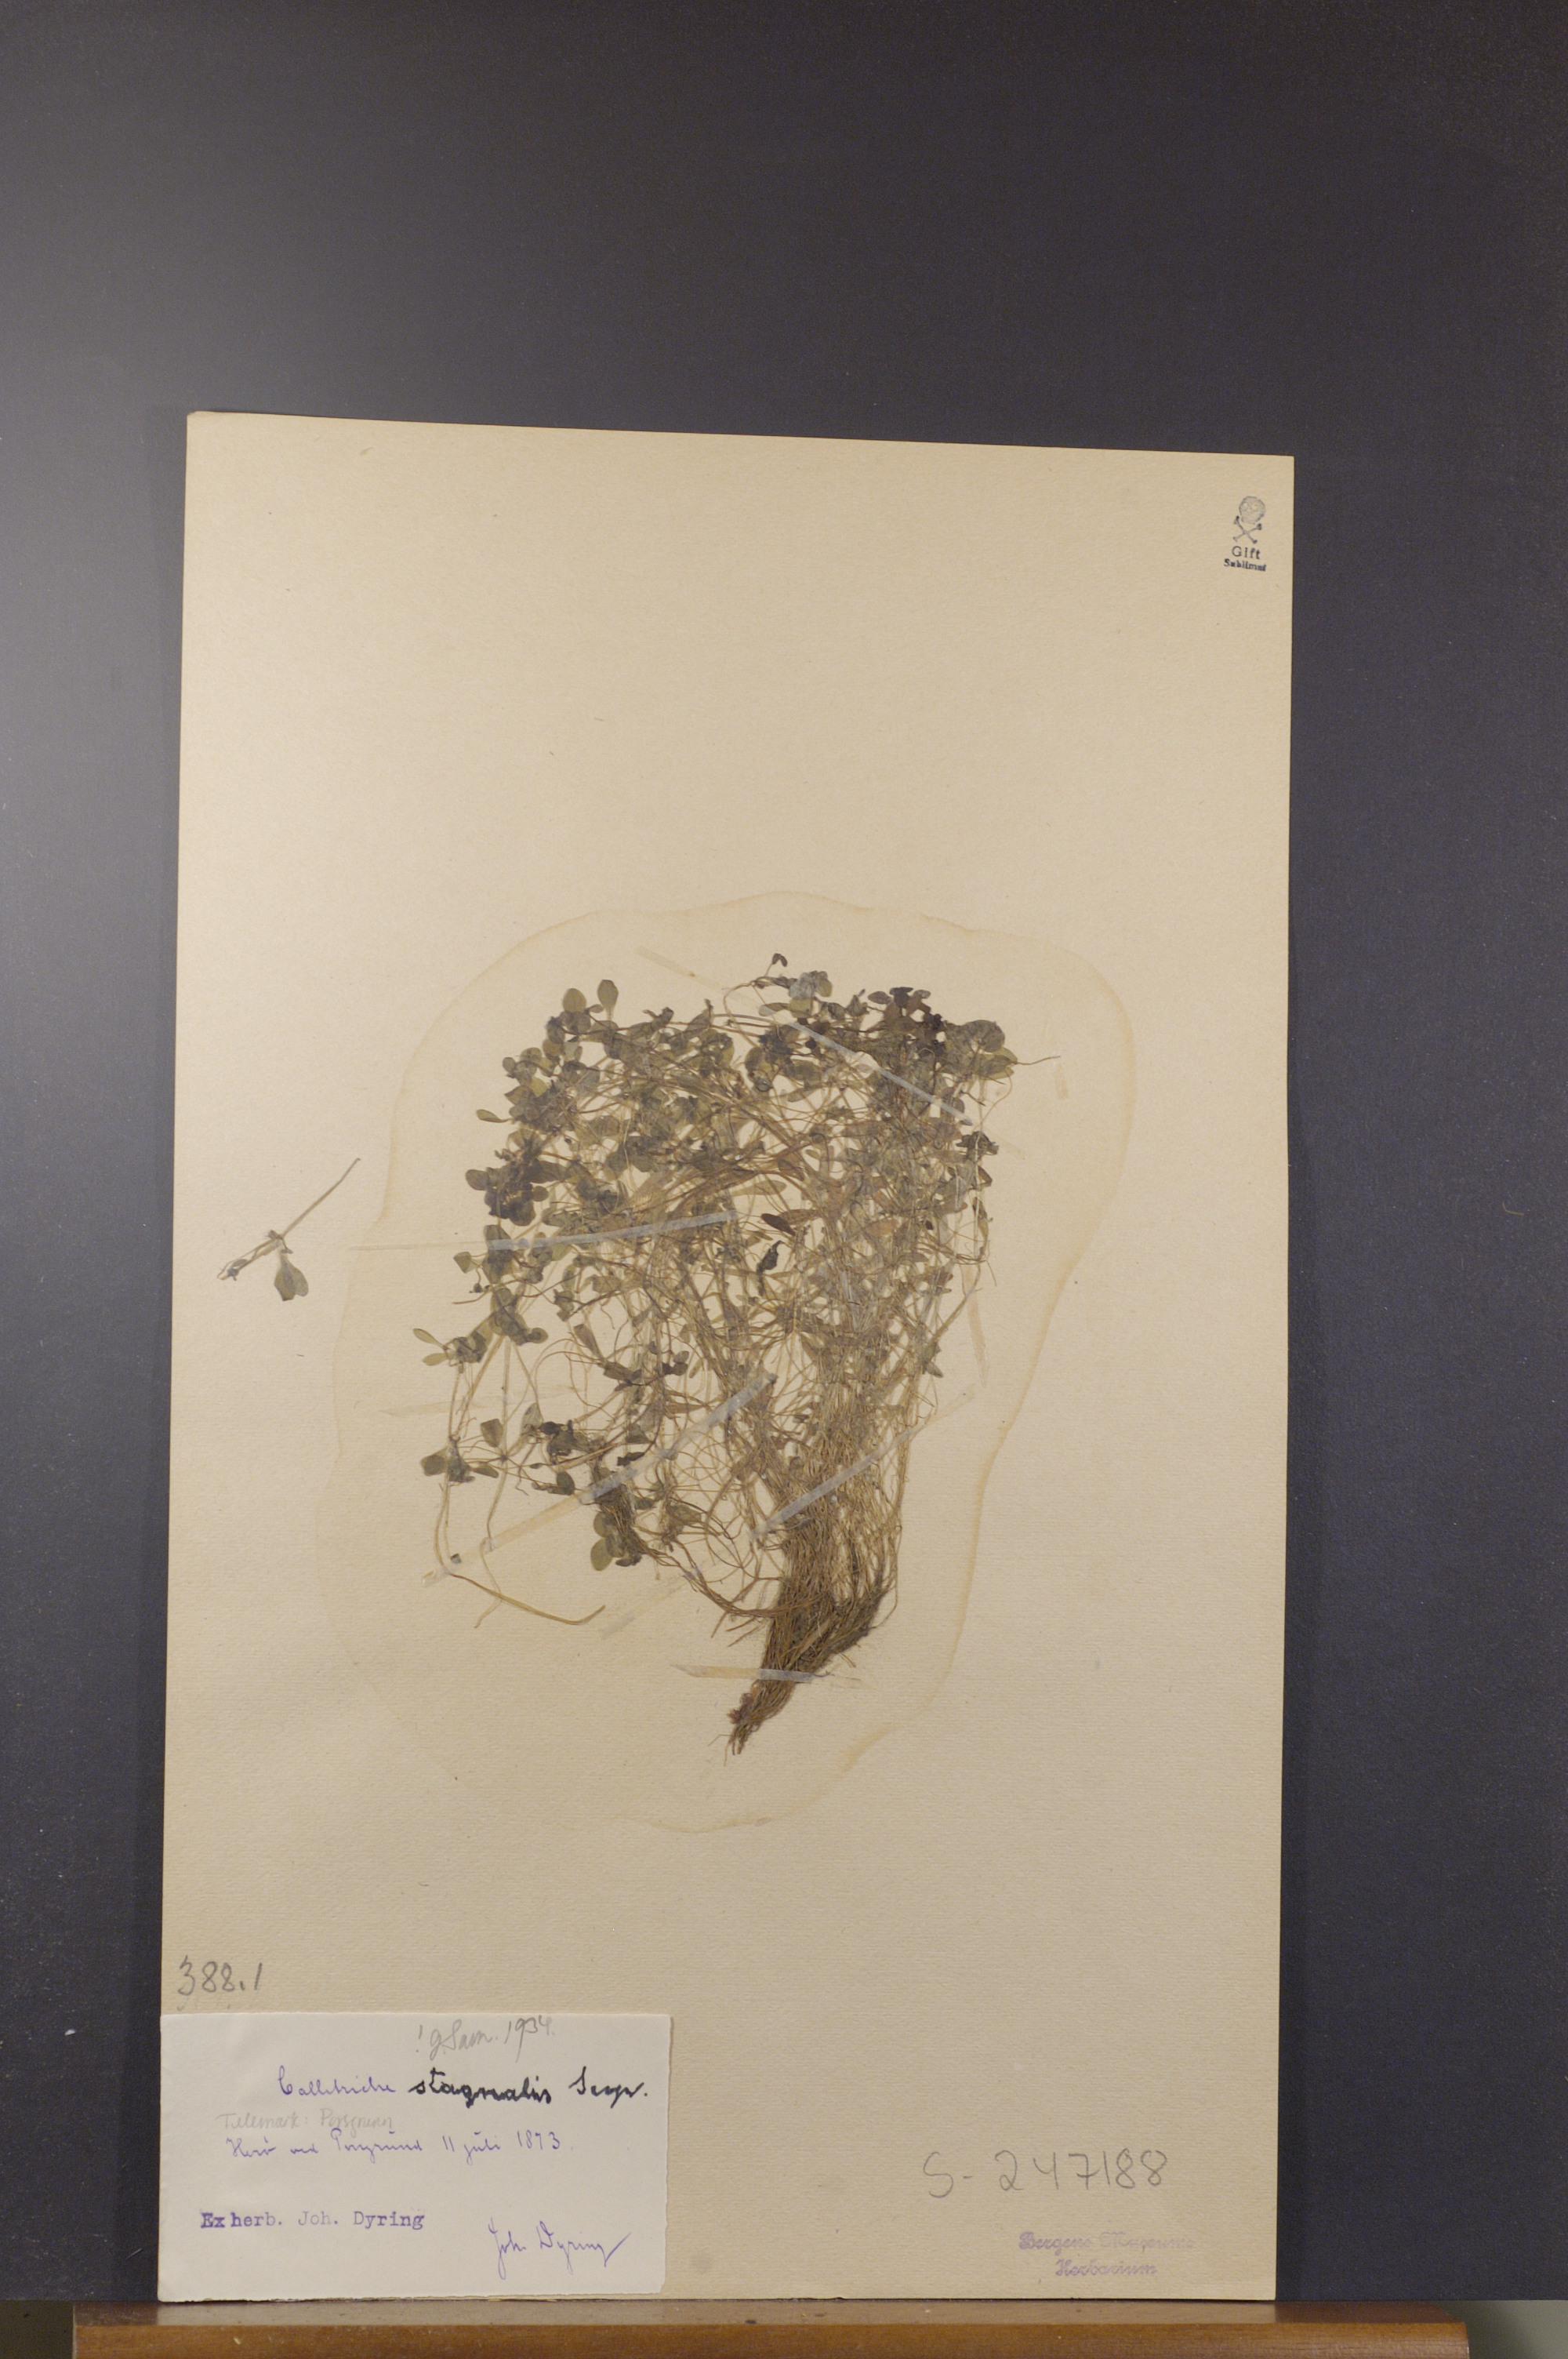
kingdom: Plantae
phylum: Tracheophyta
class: Magnoliopsida
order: Lamiales
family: Plantaginaceae
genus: Callitriche
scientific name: Callitriche stagnalis
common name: Common water-starwort
